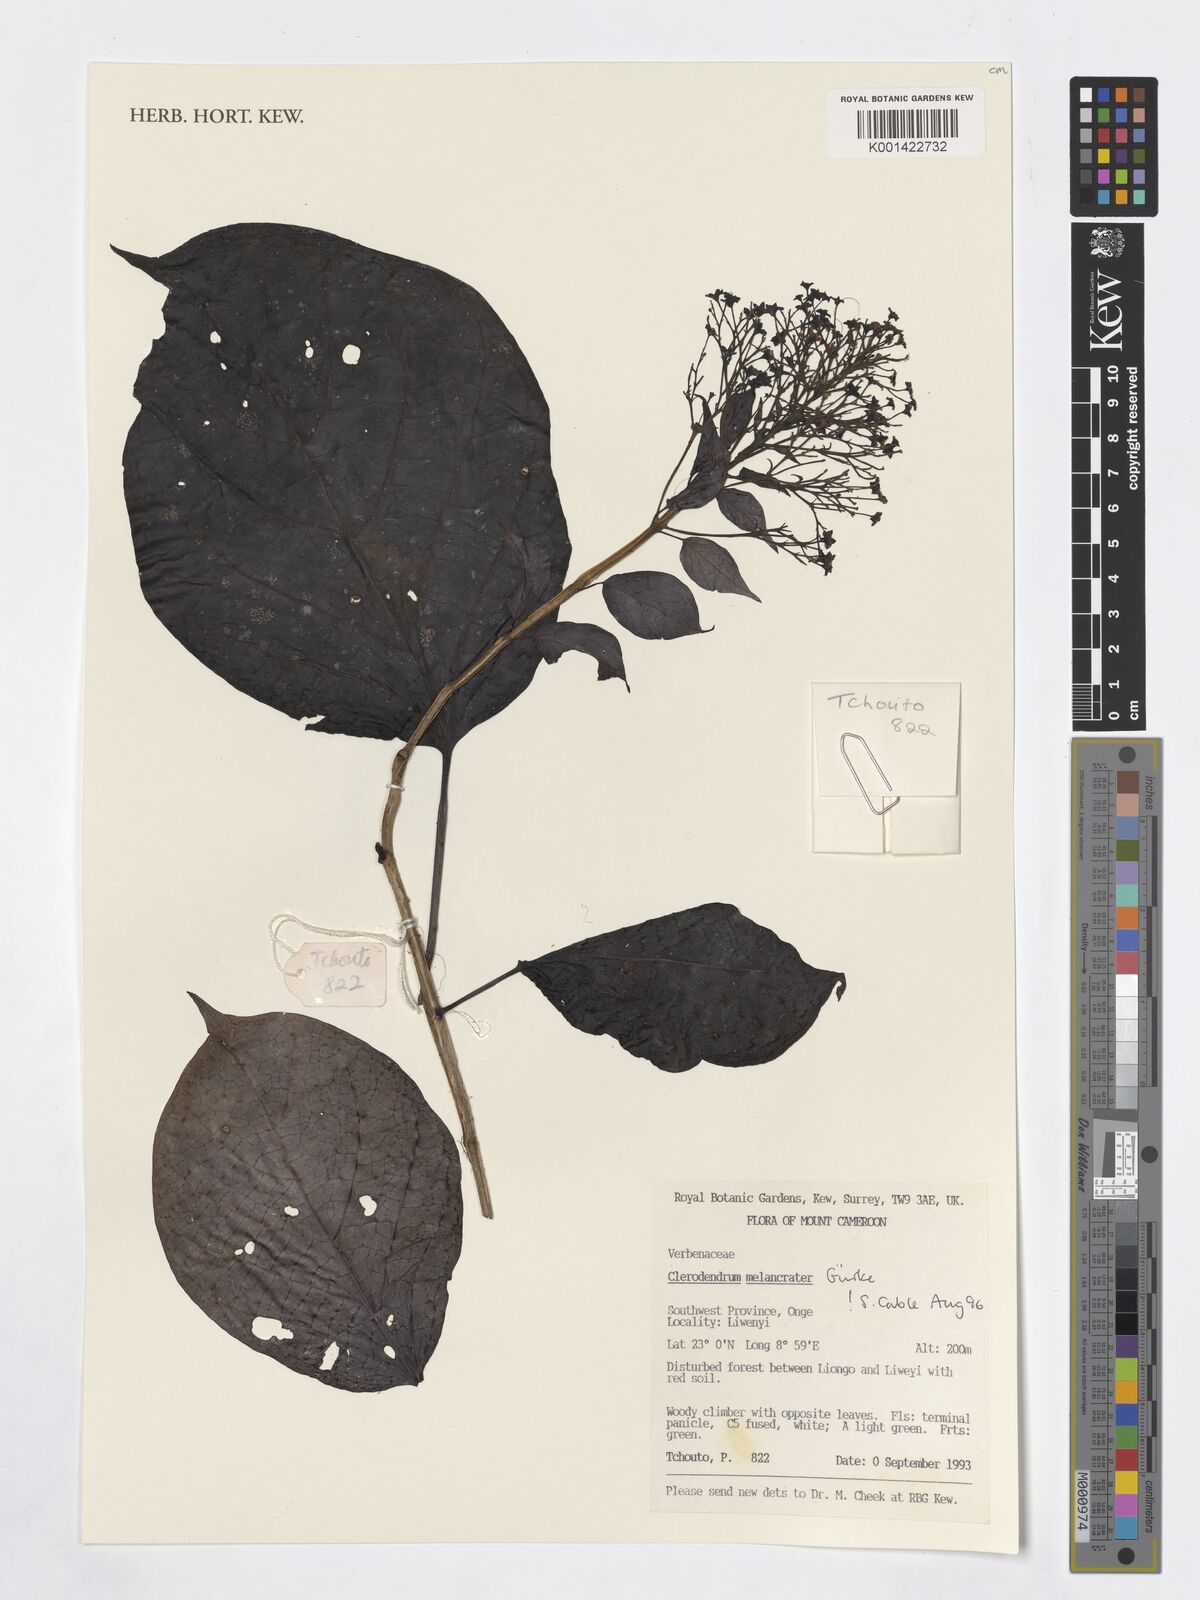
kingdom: Plantae
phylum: Tracheophyta
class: Magnoliopsida
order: Lamiales
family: Lamiaceae
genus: Clerodendrum
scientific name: Clerodendrum
